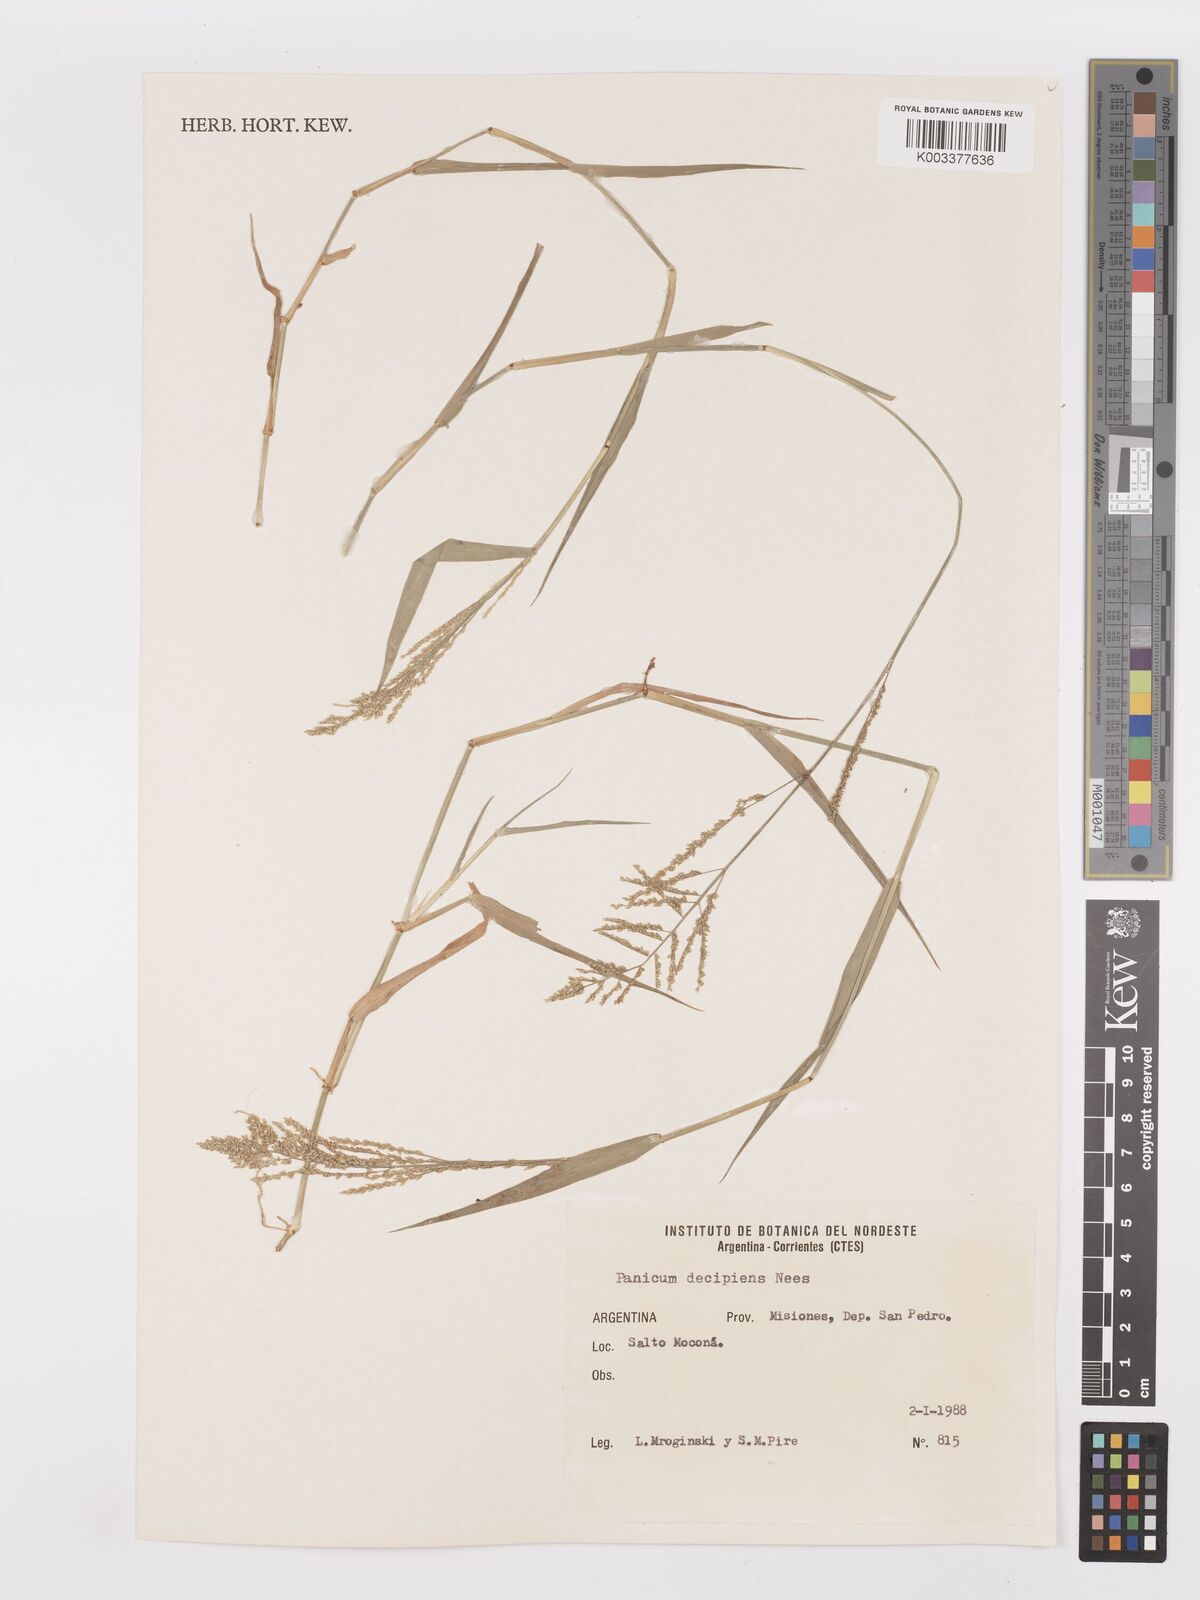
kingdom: Plantae
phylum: Tracheophyta
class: Liliopsida
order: Poales
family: Poaceae
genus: Steinchisma
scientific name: Steinchisma laxum
